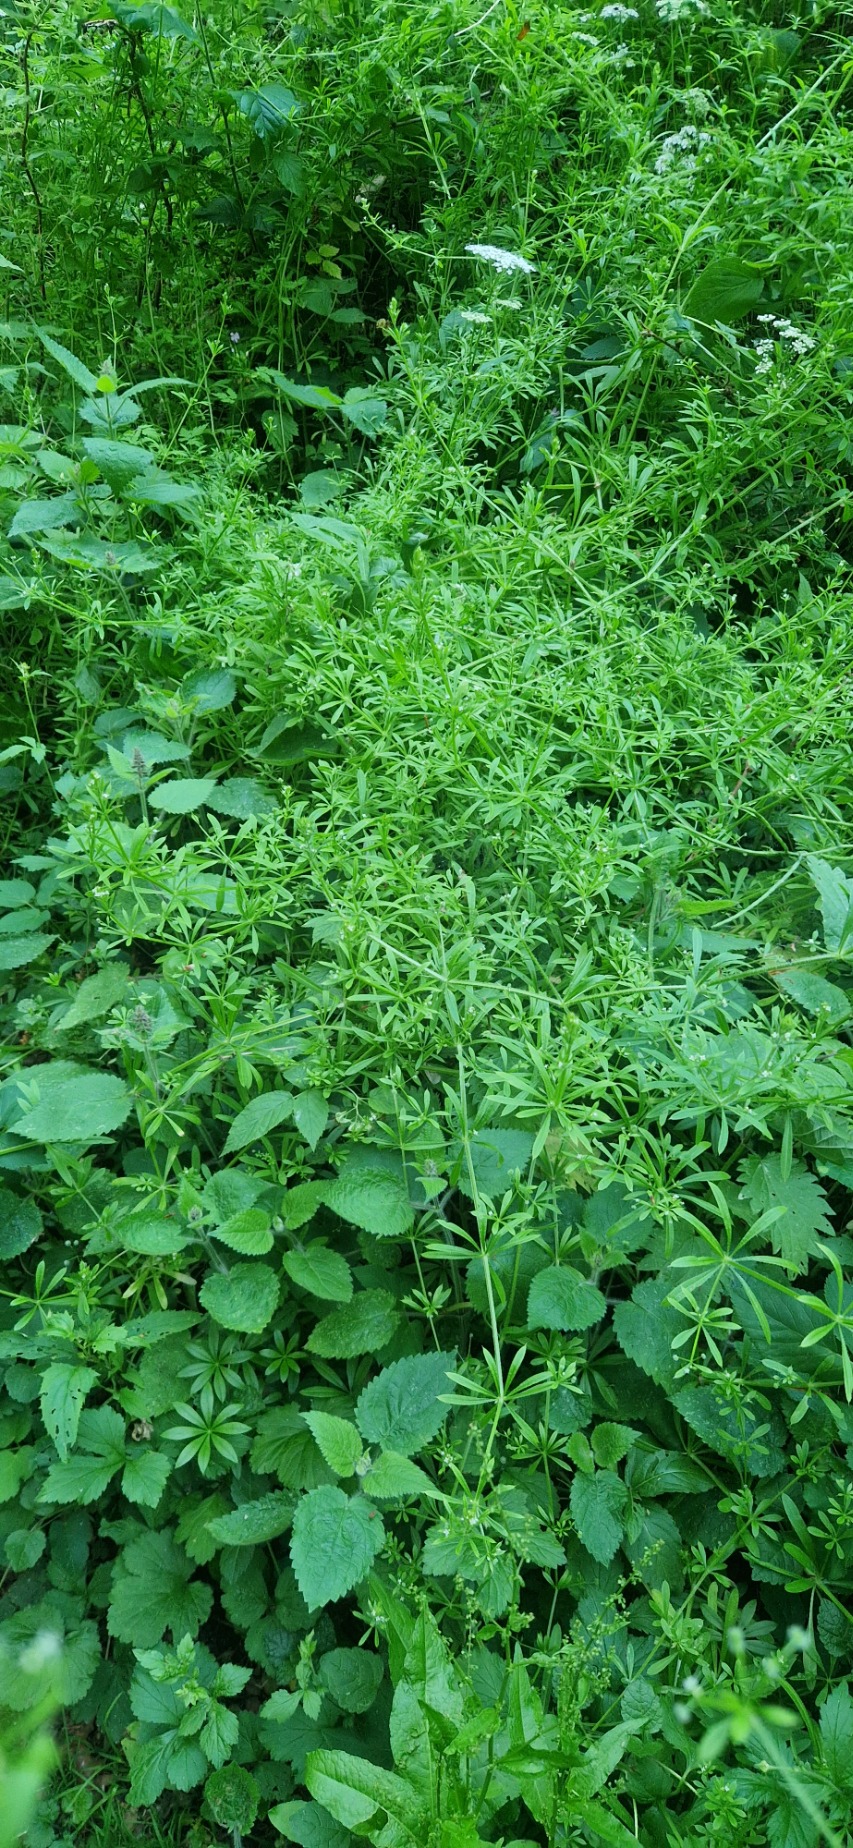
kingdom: Plantae
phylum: Tracheophyta
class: Magnoliopsida
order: Gentianales
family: Rubiaceae
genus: Galium
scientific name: Galium aparine
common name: Burre-snerre
